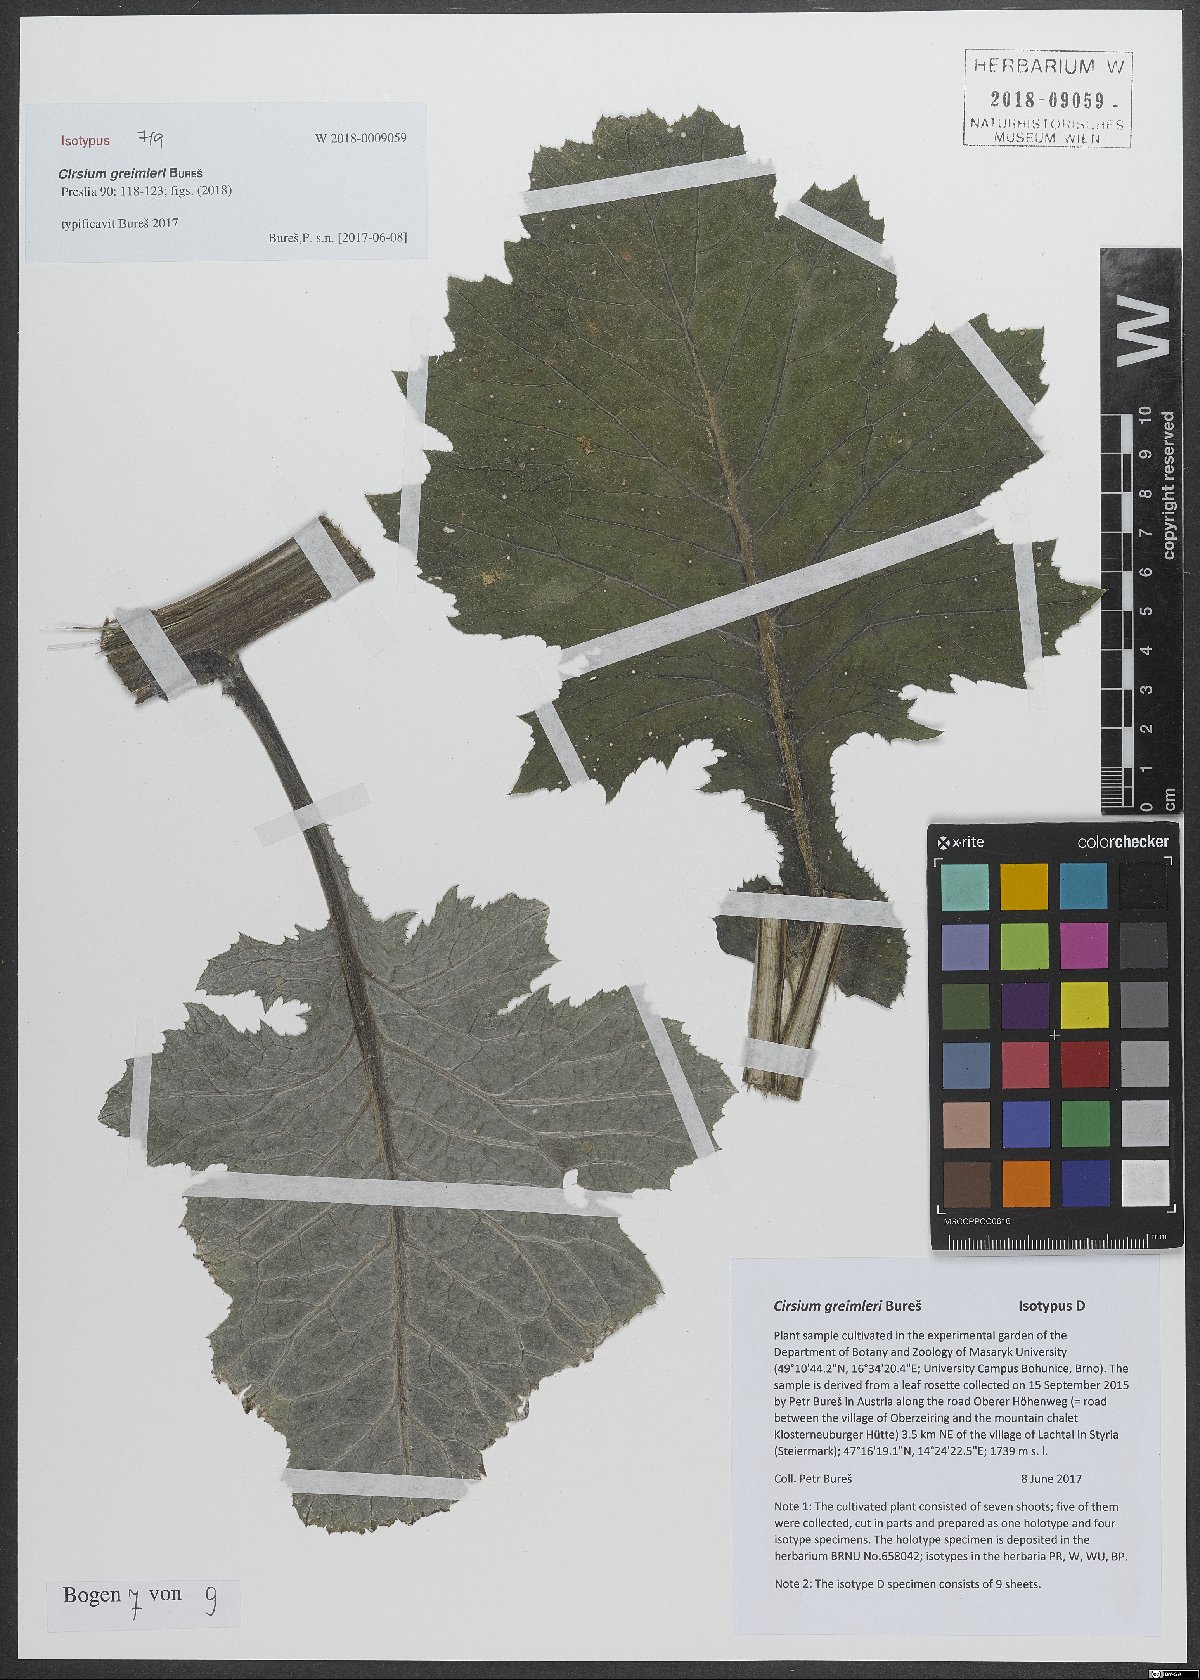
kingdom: Plantae
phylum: Tracheophyta
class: Magnoliopsida
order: Asterales
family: Asteraceae
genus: Cirsium
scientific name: Cirsium greimleri
